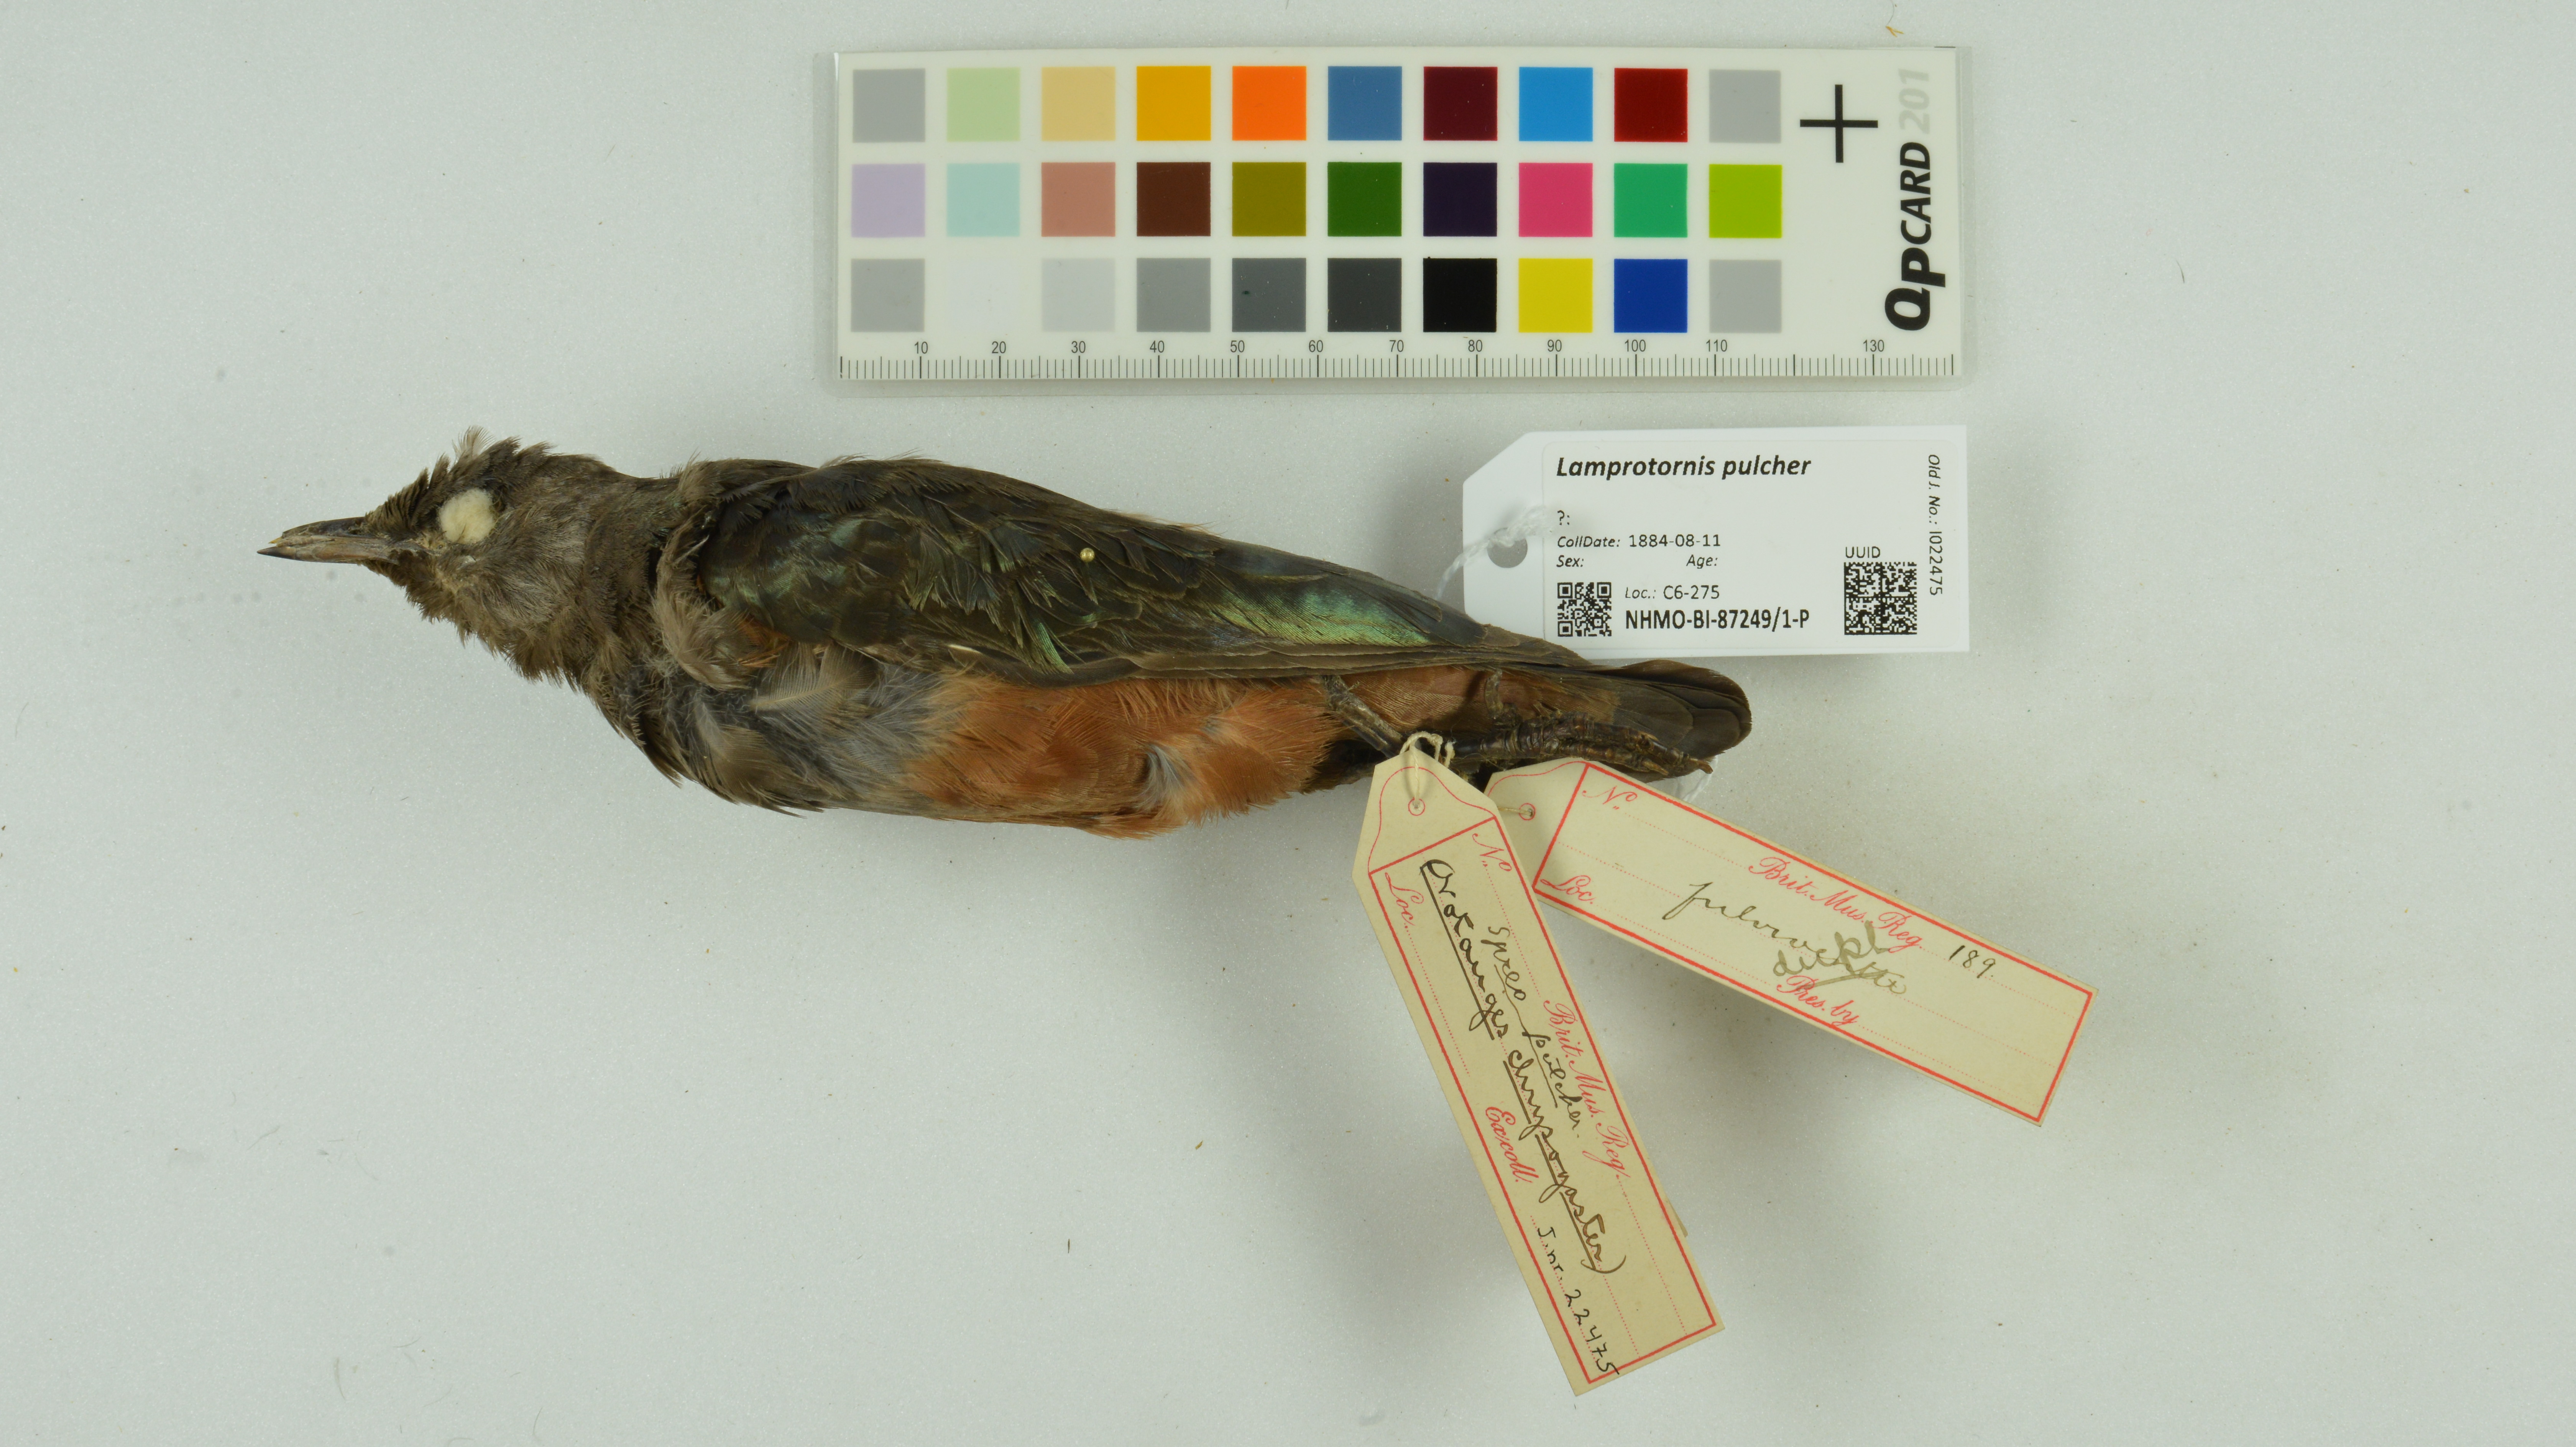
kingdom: Animalia
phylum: Chordata
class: Aves
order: Passeriformes
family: Sturnidae
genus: Lamprotornis
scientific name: Lamprotornis pulcher
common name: Chestnut-bellied starling
